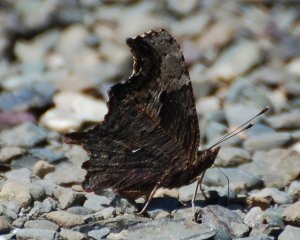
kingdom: Animalia
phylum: Arthropoda
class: Insecta
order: Lepidoptera
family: Nymphalidae
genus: Polygonia
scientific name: Polygonia progne
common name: Gray Comma
